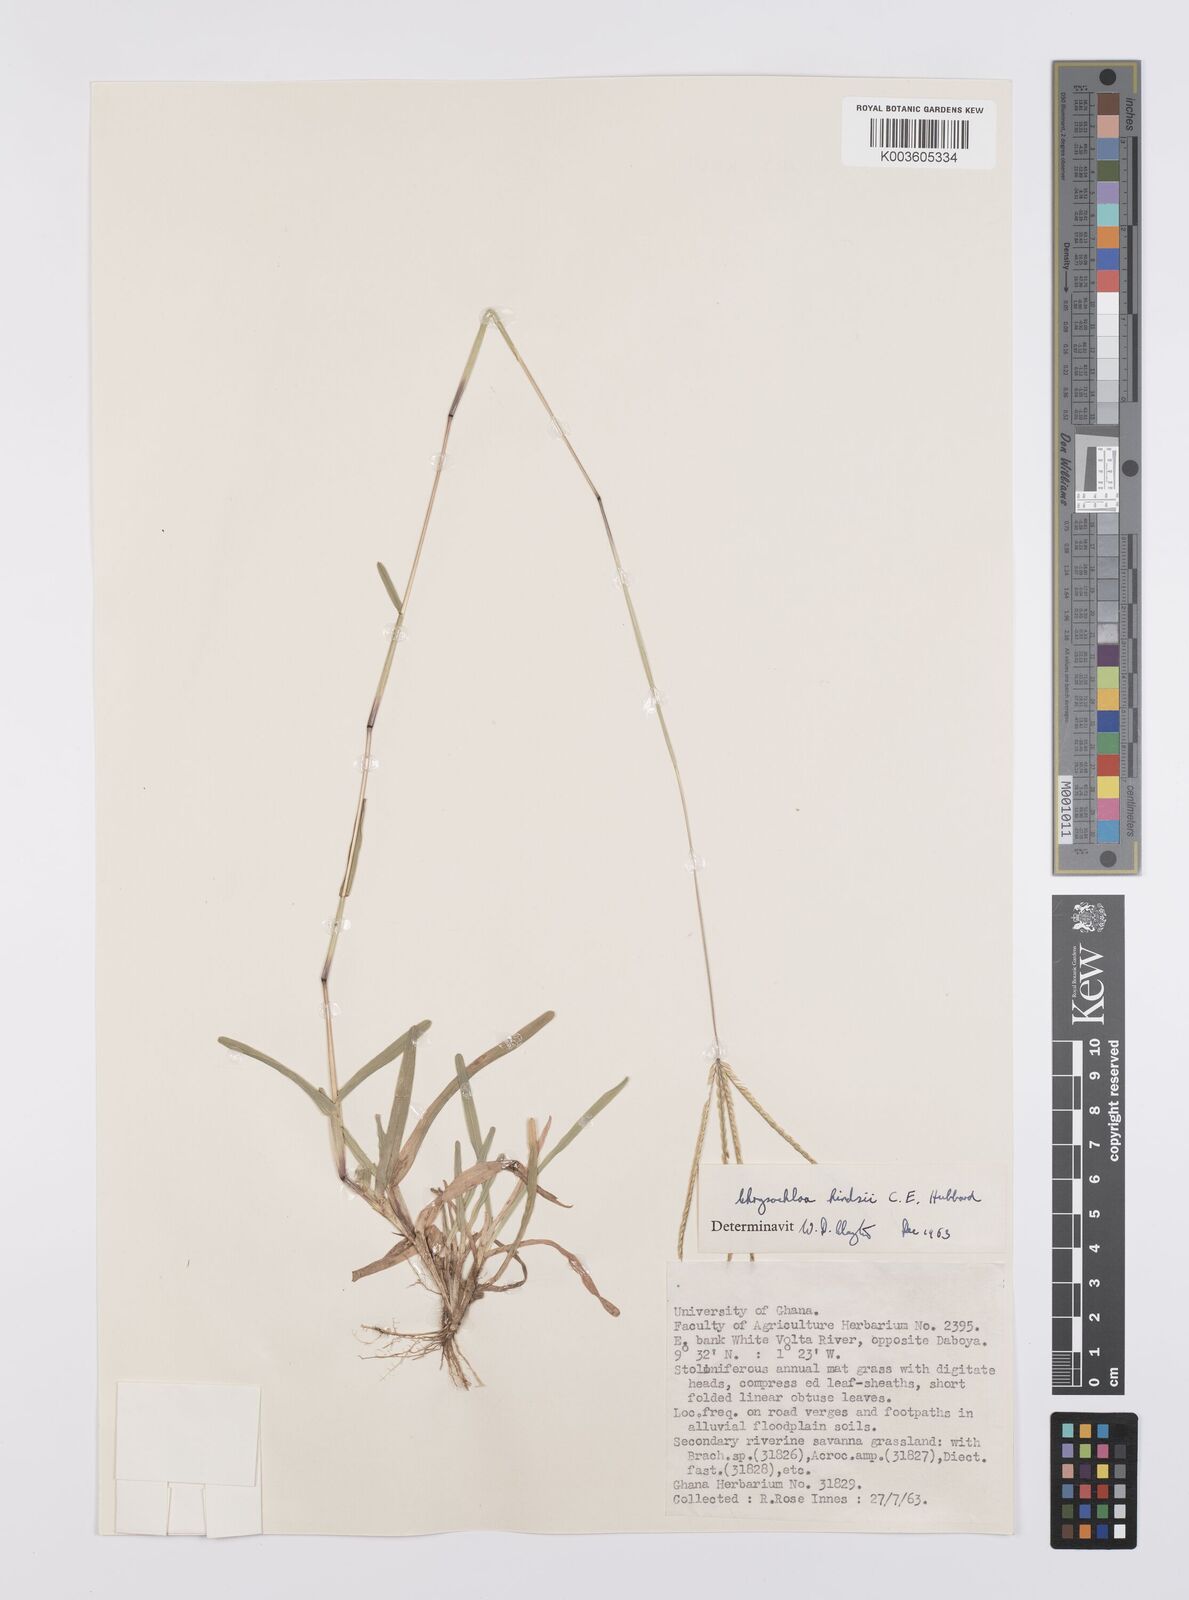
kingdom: Plantae
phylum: Tracheophyta
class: Liliopsida
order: Poales
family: Poaceae
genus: Chrysochloa
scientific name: Chrysochloa hindsii
